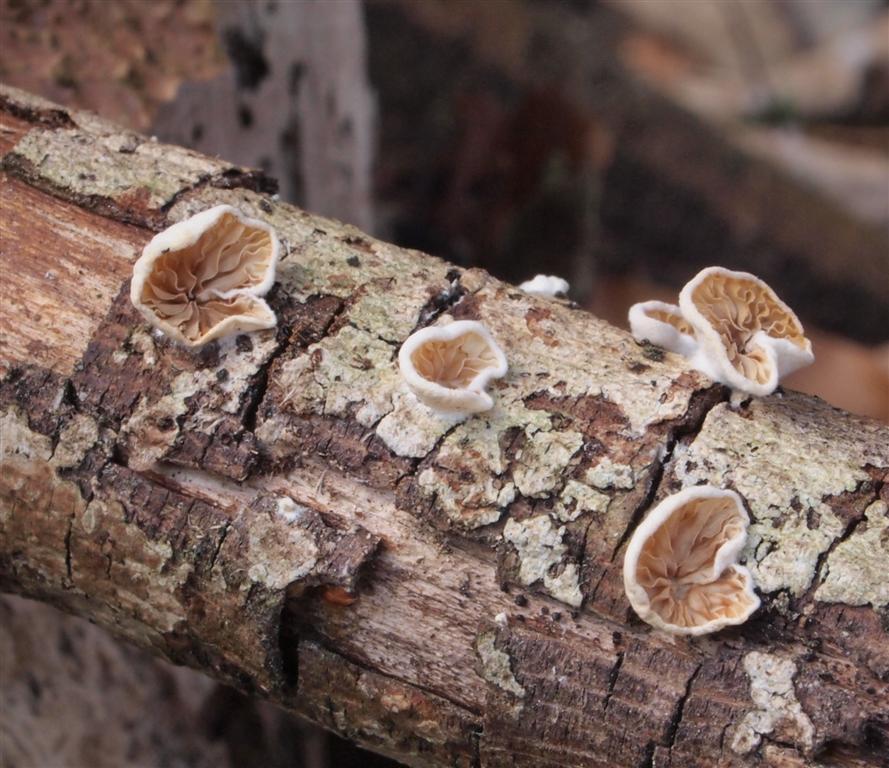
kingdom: Fungi
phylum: Basidiomycota
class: Agaricomycetes
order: Agaricales
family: Crepidotaceae
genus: Crepidotus
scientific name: Crepidotus cesatii
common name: almindelig muslingesvamp
